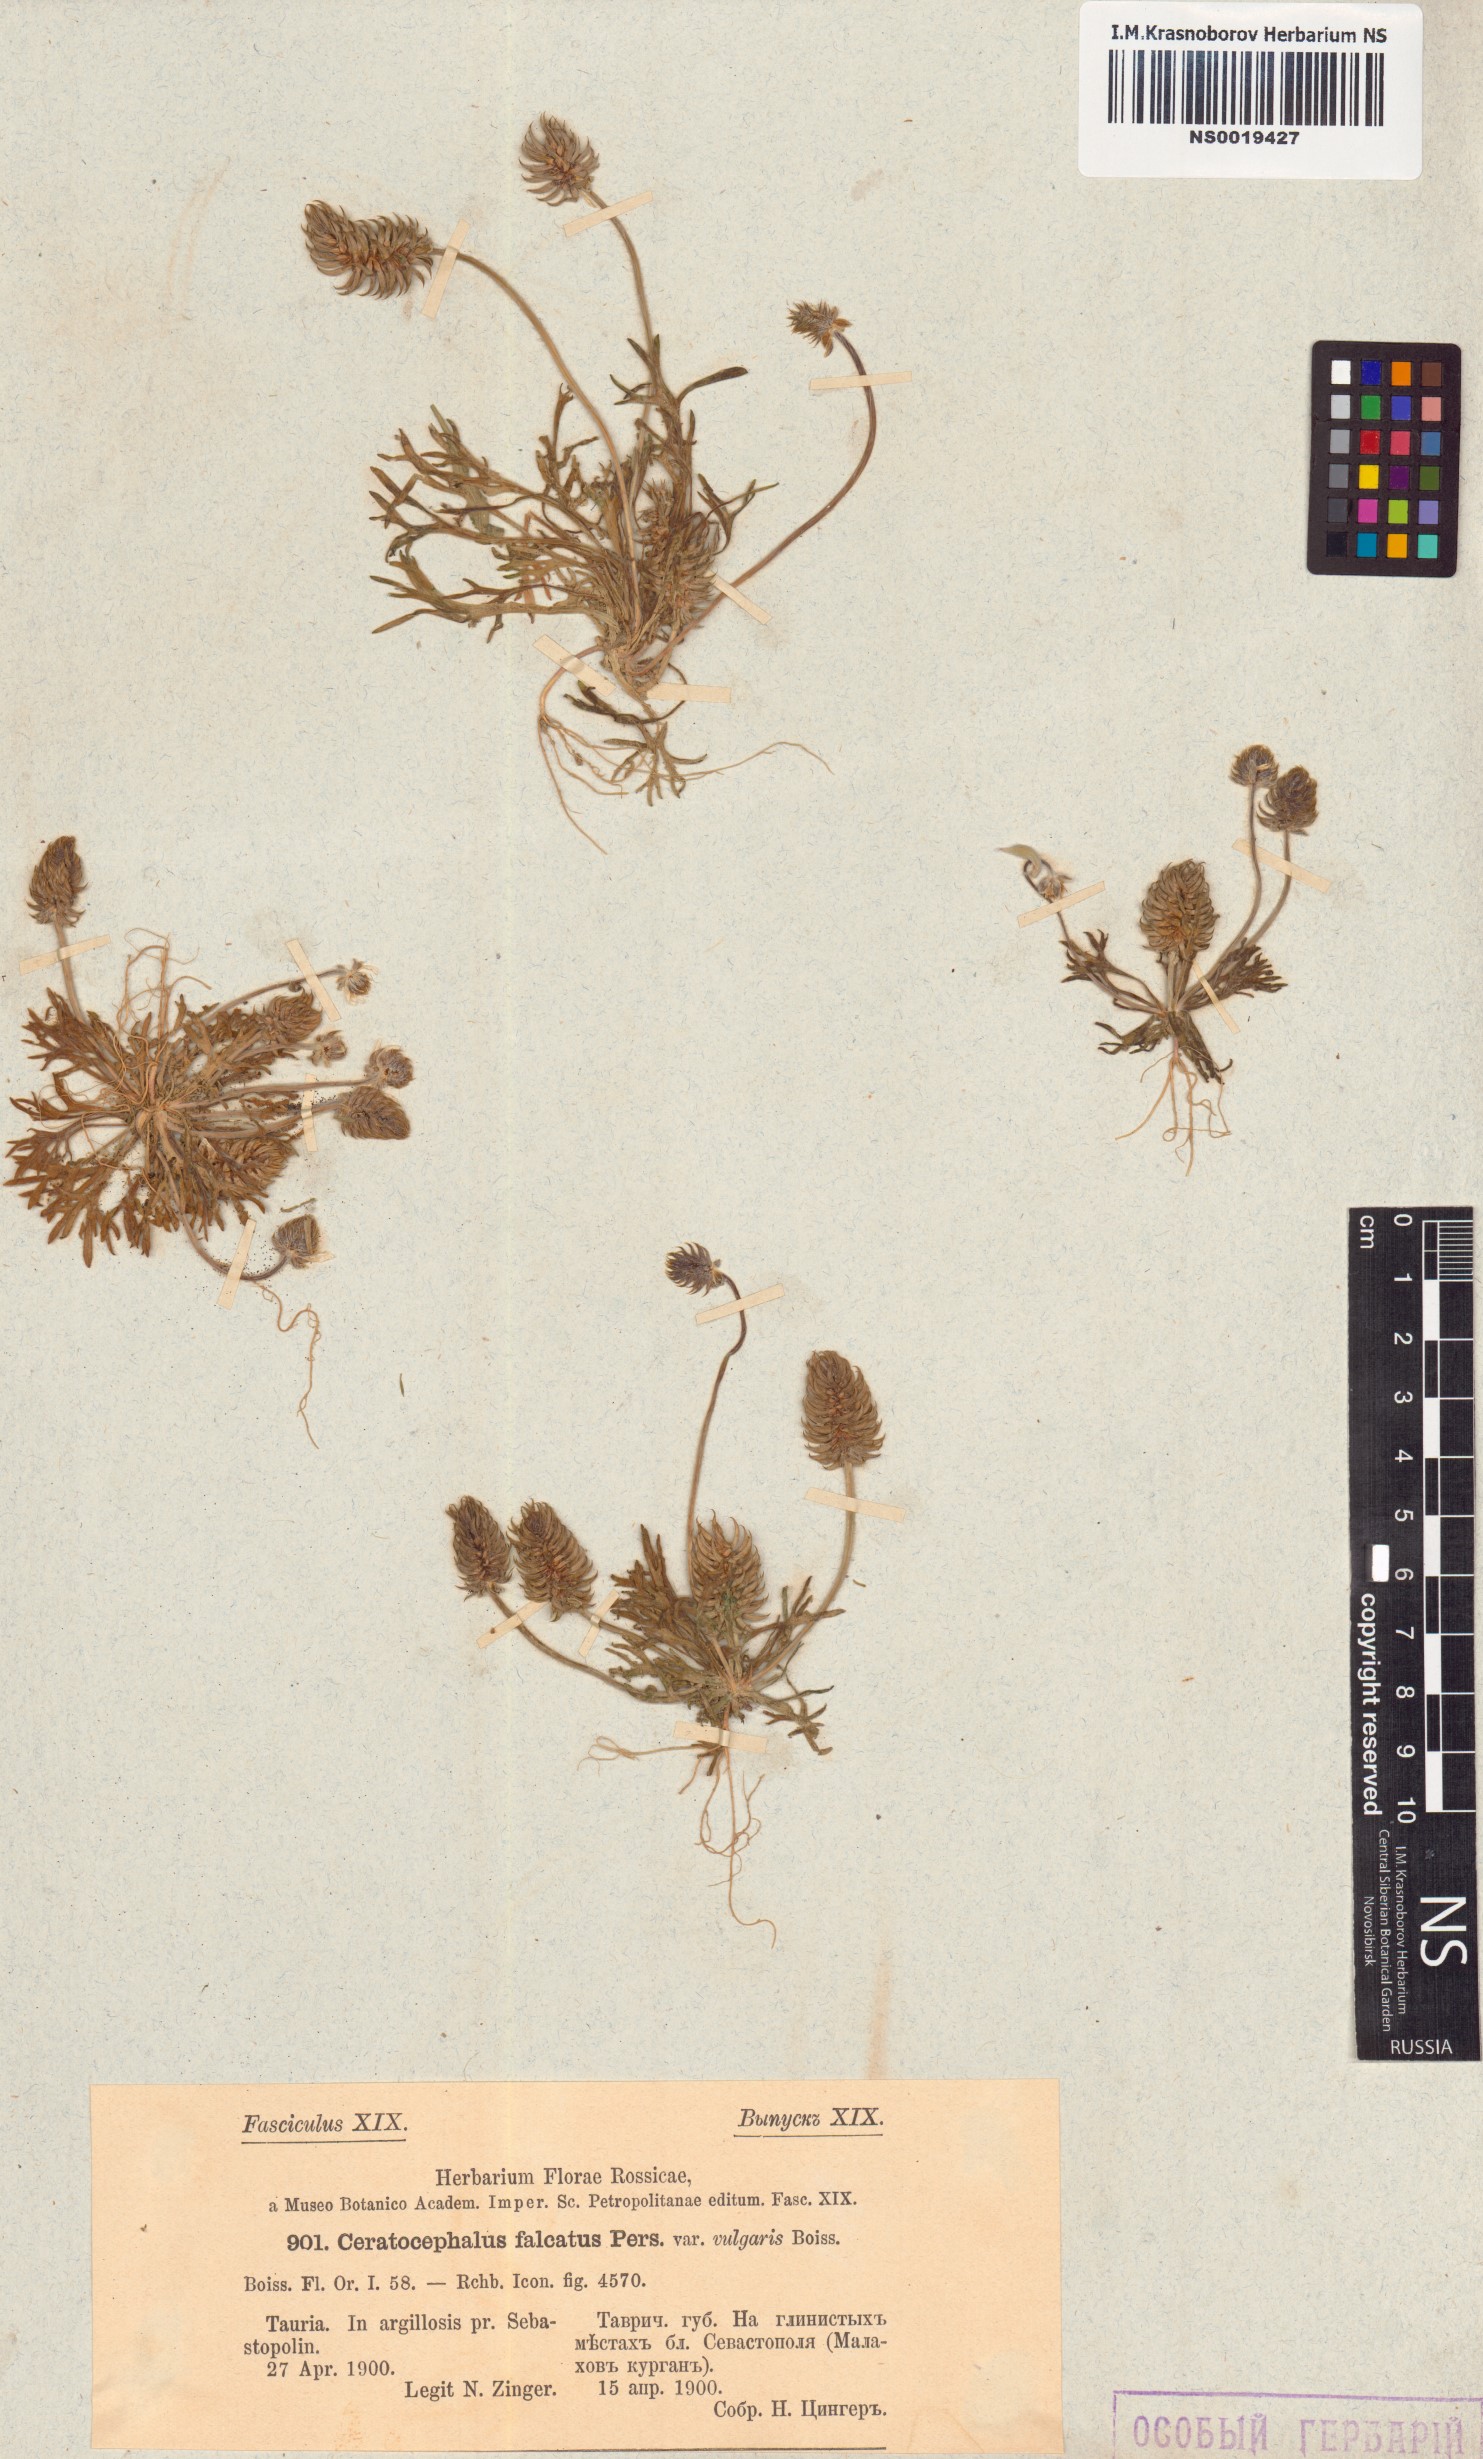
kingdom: Plantae
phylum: Tracheophyta
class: Magnoliopsida
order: Ranunculales
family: Ranunculaceae
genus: Ceratocephala
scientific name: Ceratocephala falcata
